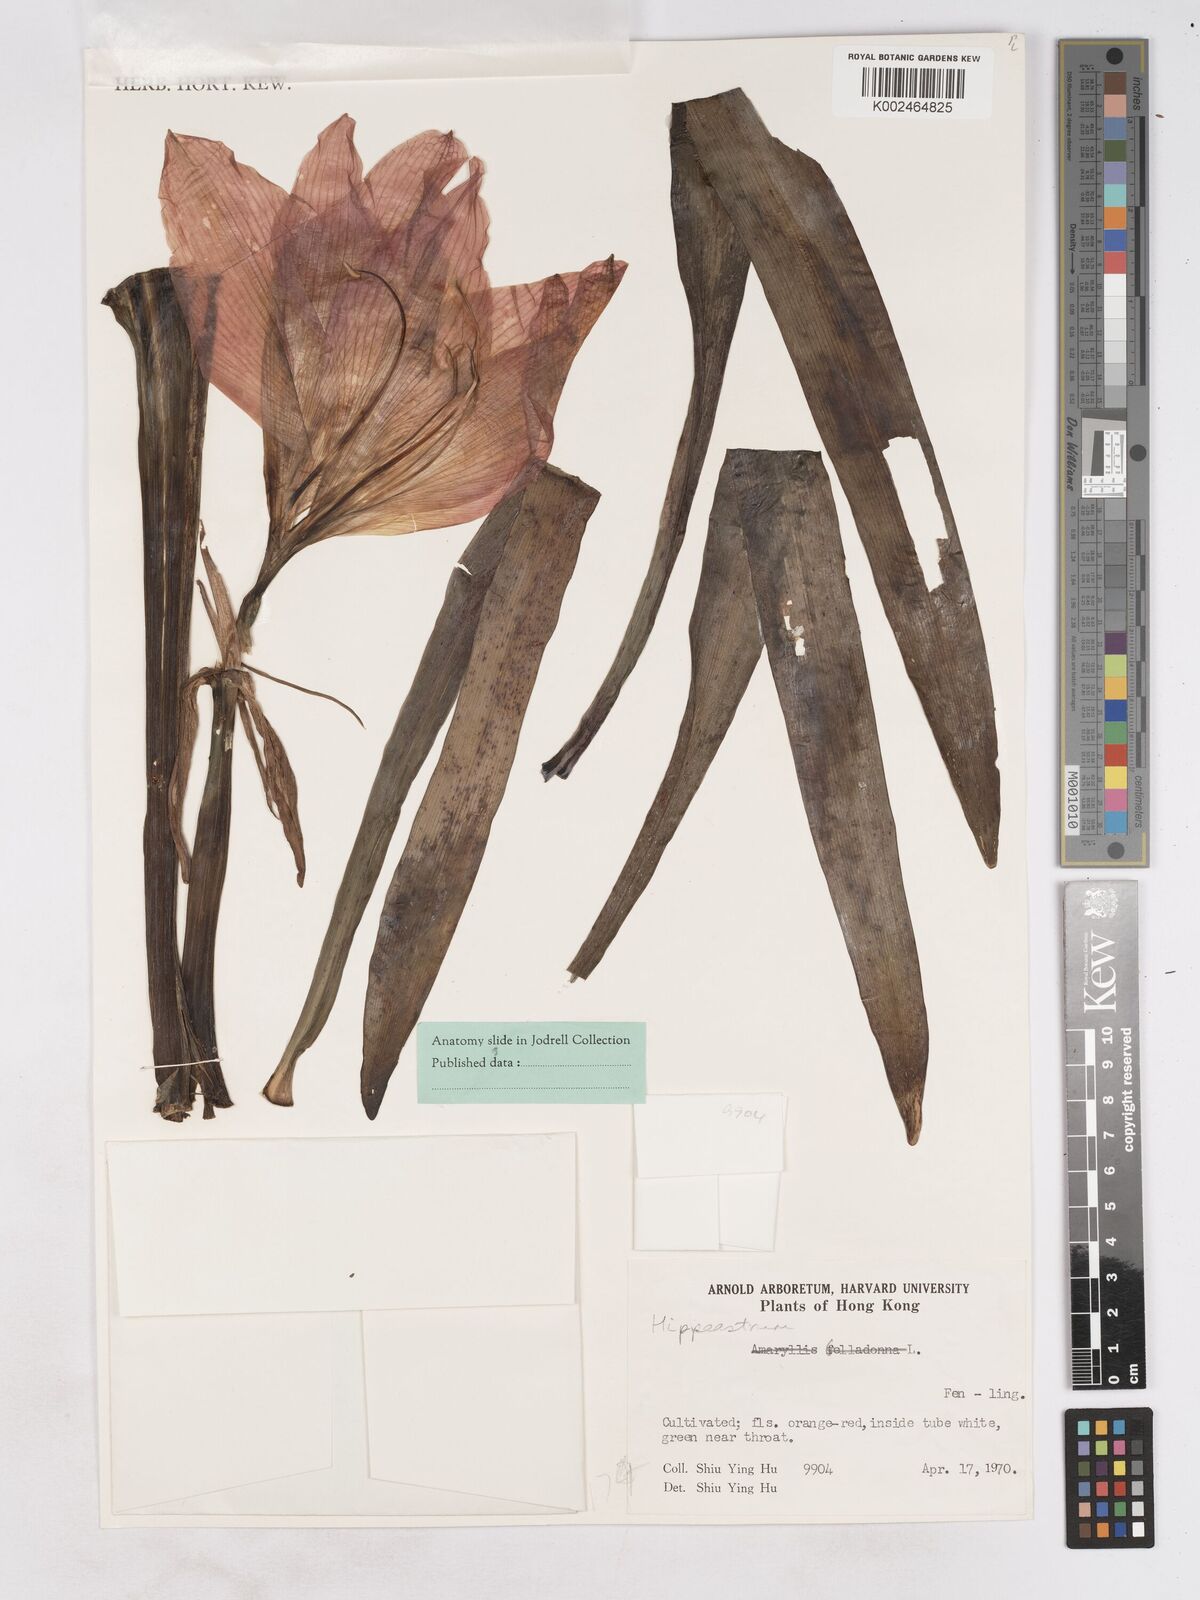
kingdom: Plantae
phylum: Tracheophyta
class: Liliopsida
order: Asparagales
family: Amaryllidaceae
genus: Hippeastrum
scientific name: Hippeastrum puniceum
